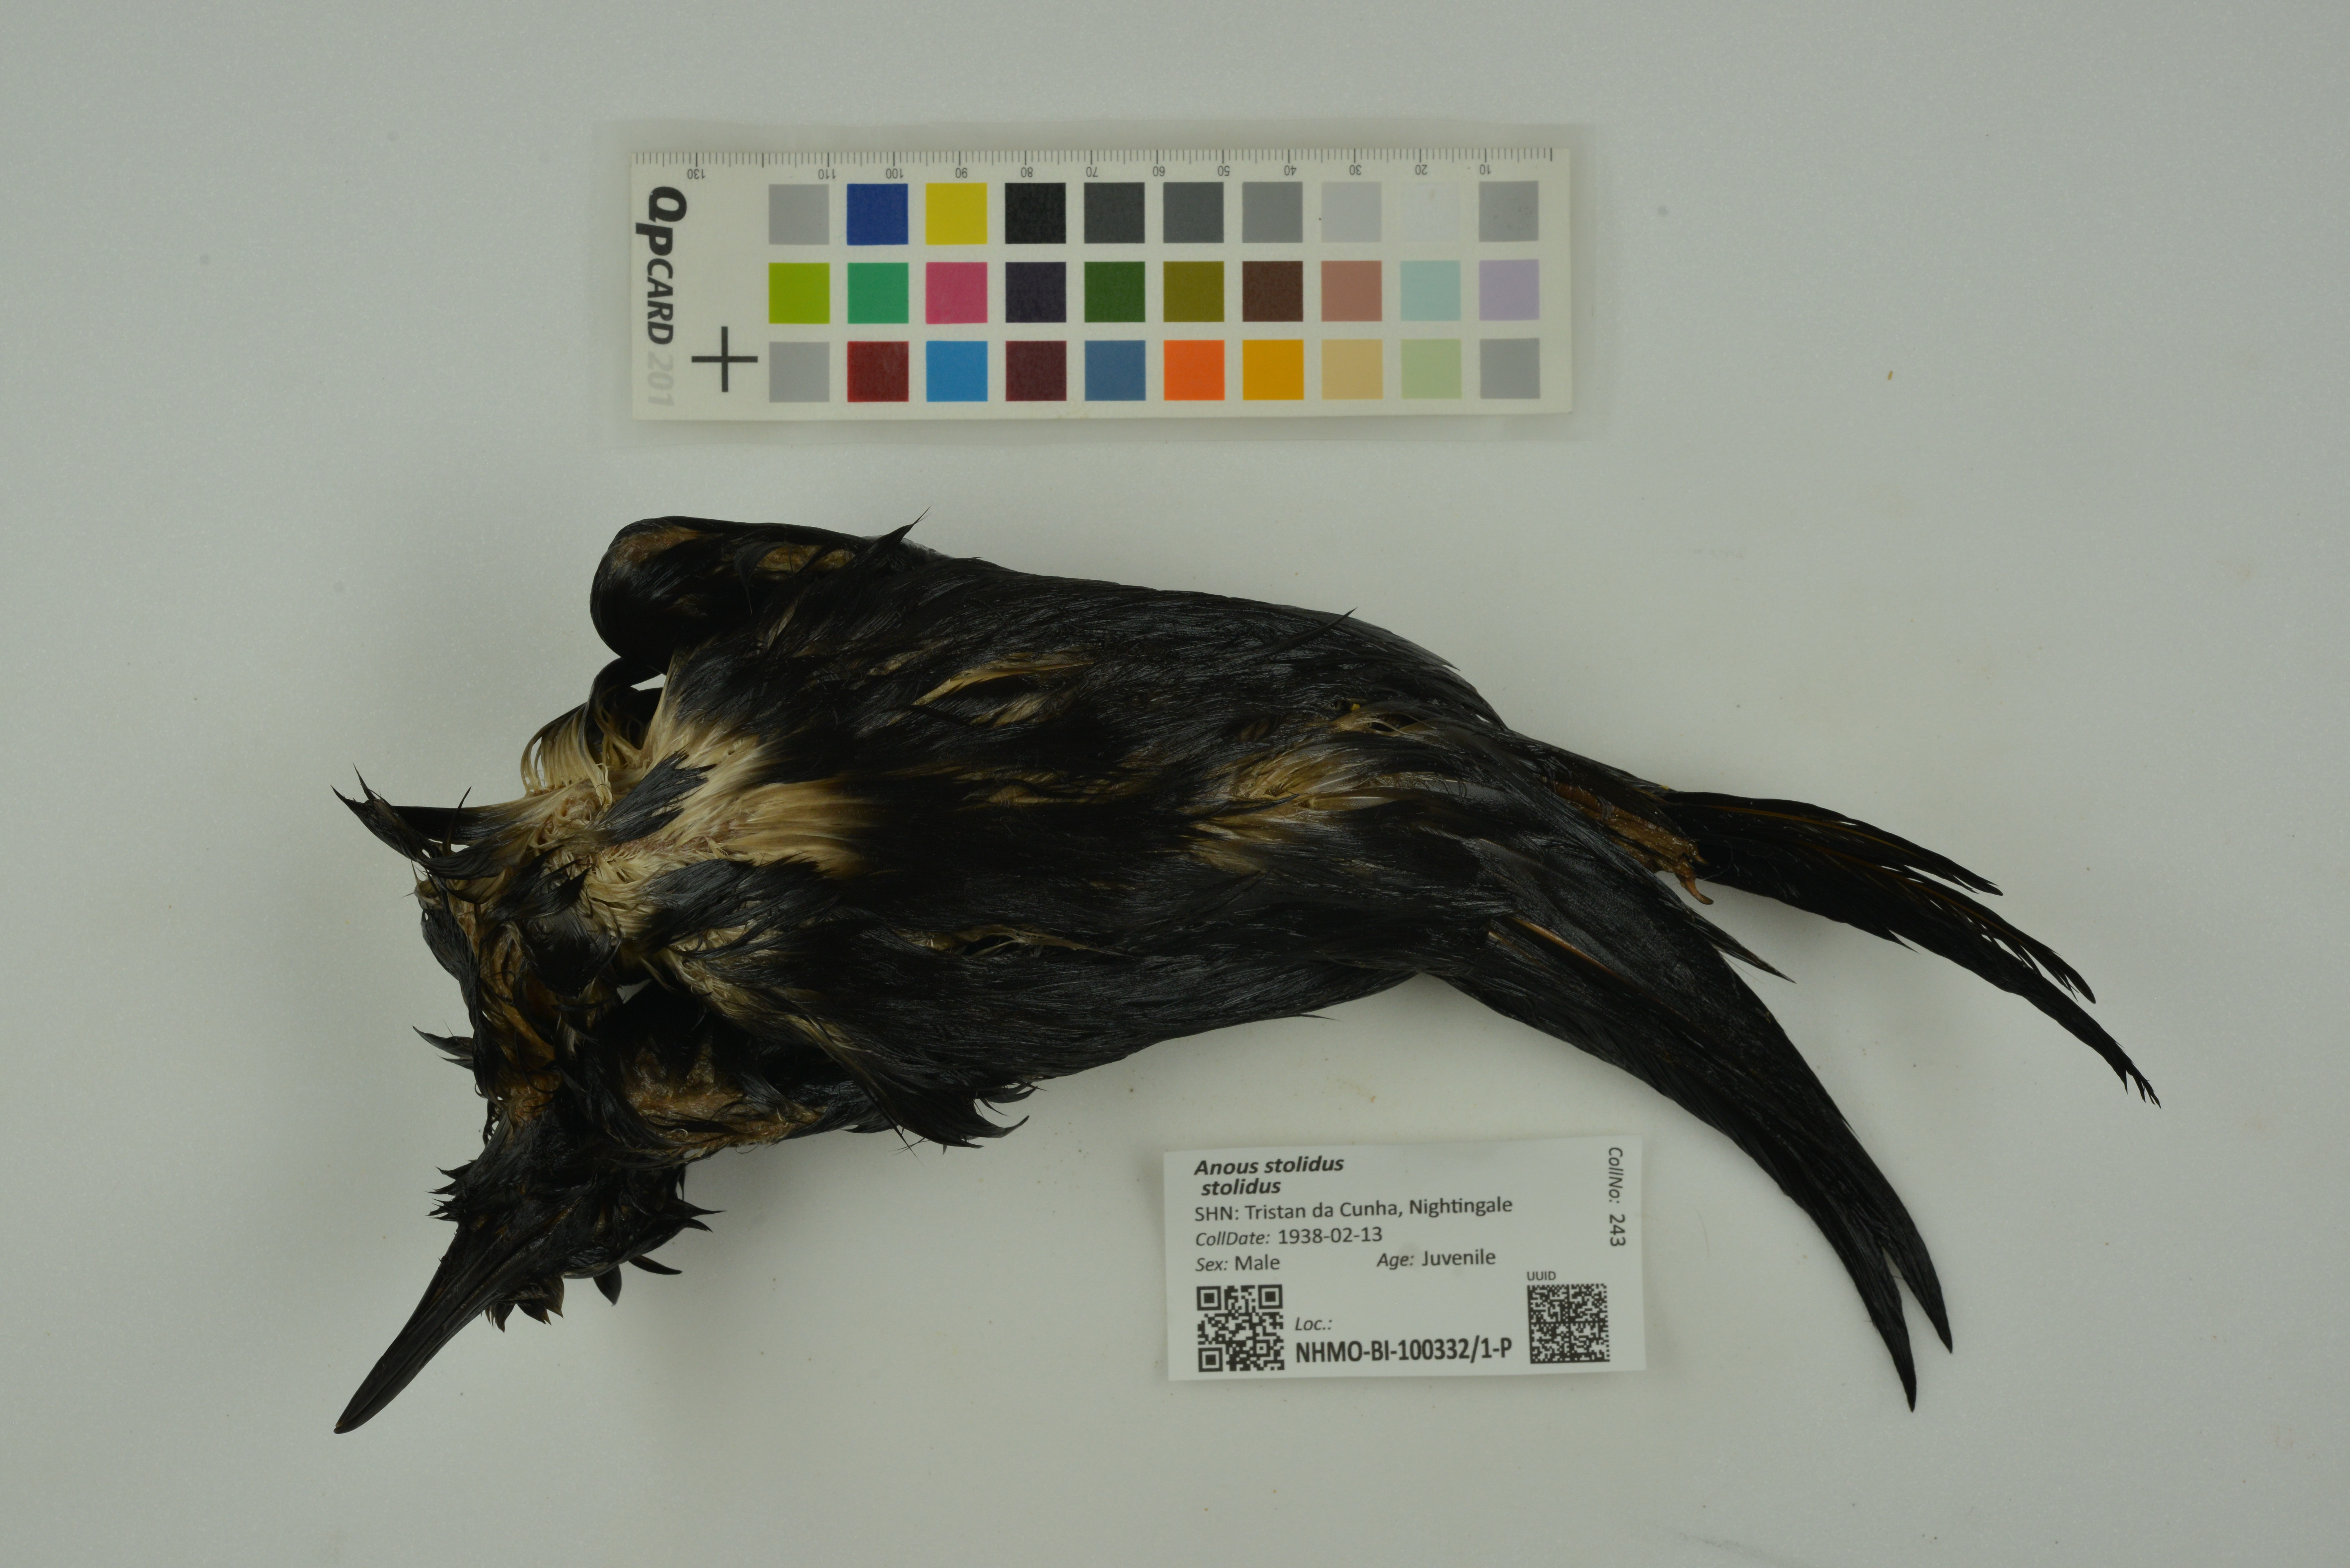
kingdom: Animalia
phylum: Chordata
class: Aves
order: Charadriiformes
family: Laridae
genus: Anous
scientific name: Anous stolidus
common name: Brown noddy
